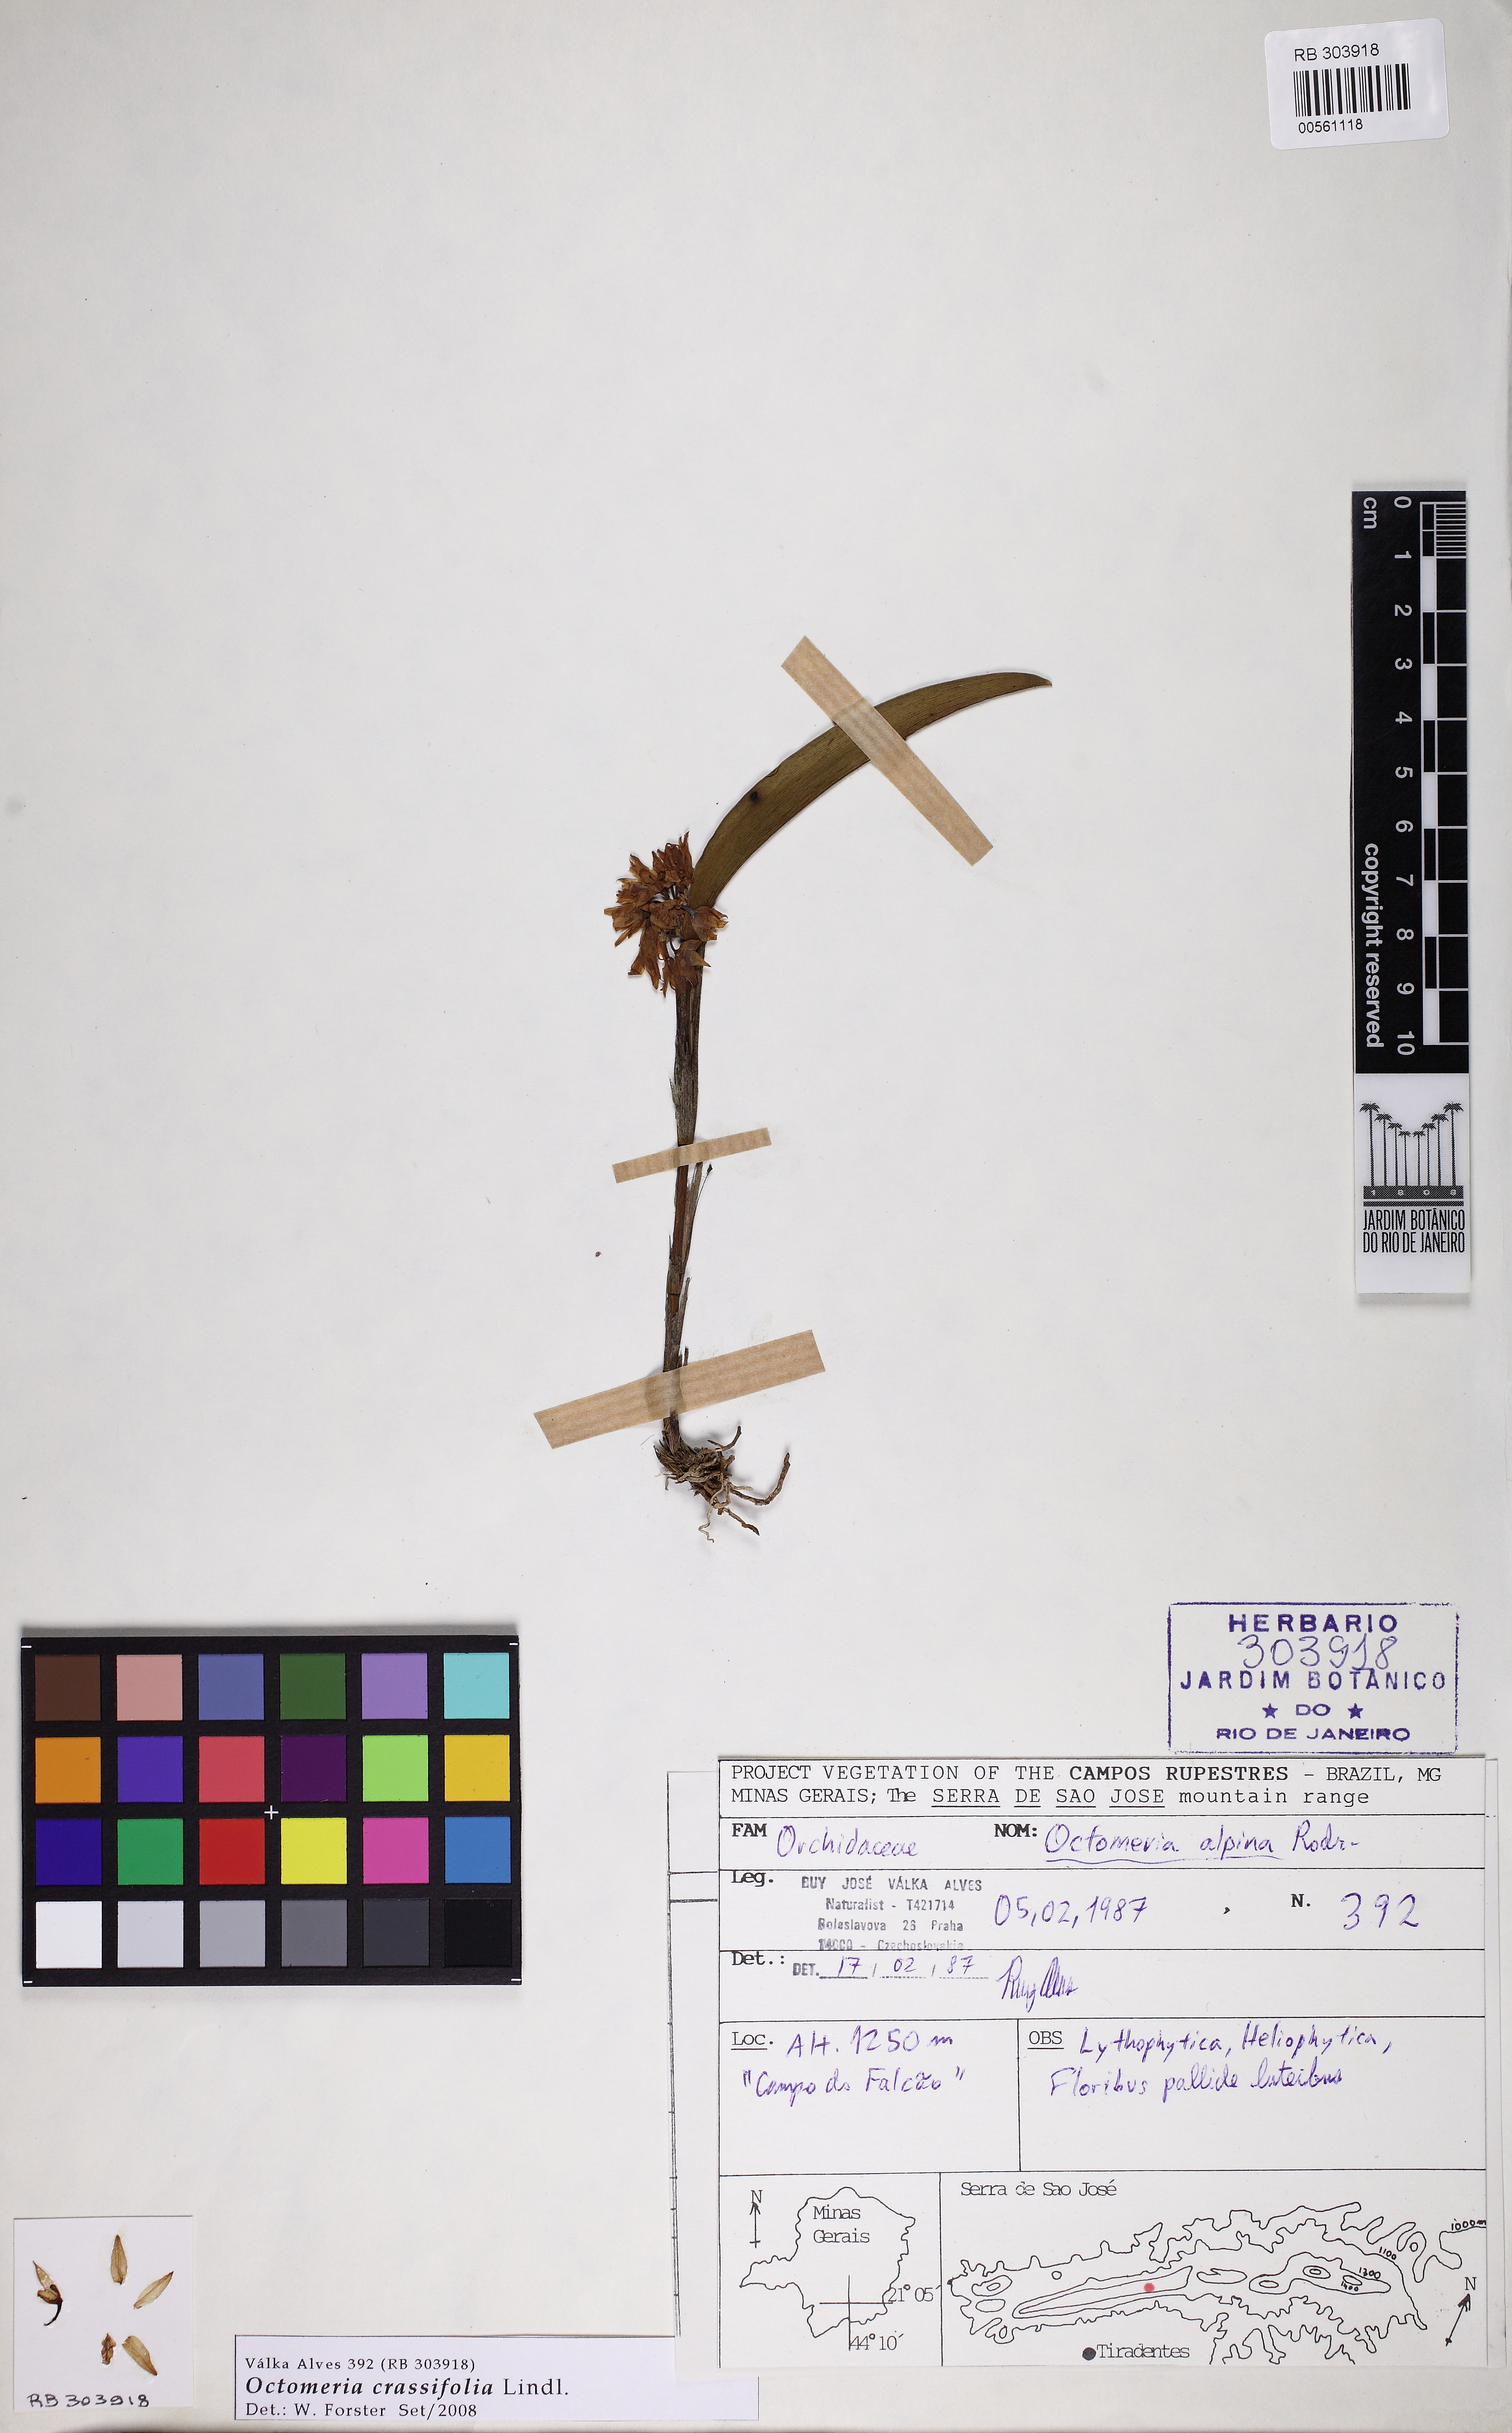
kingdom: Plantae
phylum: Tracheophyta
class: Liliopsida
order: Asparagales
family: Orchidaceae
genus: Octomeria
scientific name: Octomeria crassifolia
